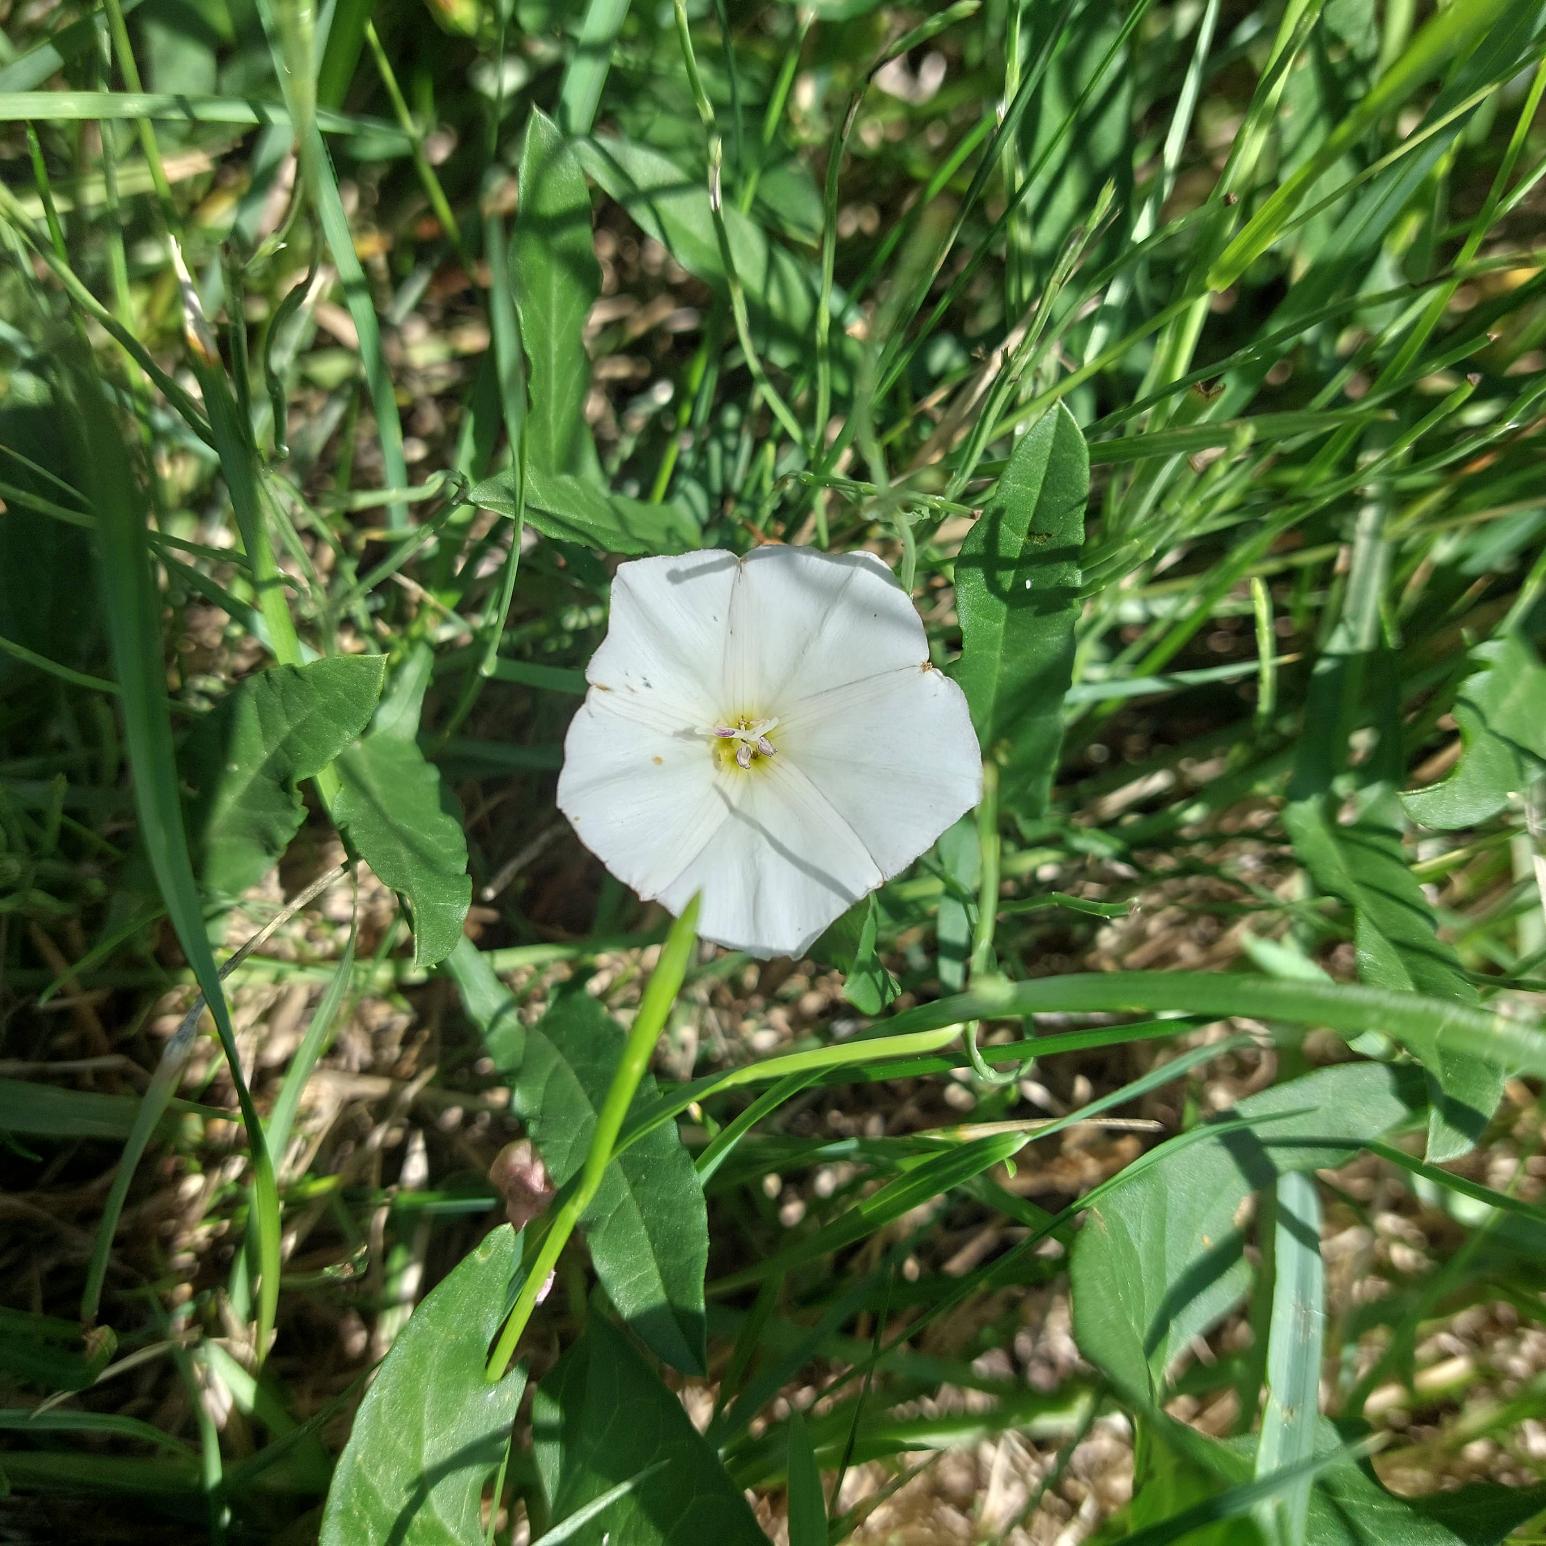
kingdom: Plantae
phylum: Tracheophyta
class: Magnoliopsida
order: Solanales
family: Convolvulaceae
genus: Convolvulus
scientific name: Convolvulus arvensis
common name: Ager-snerle
